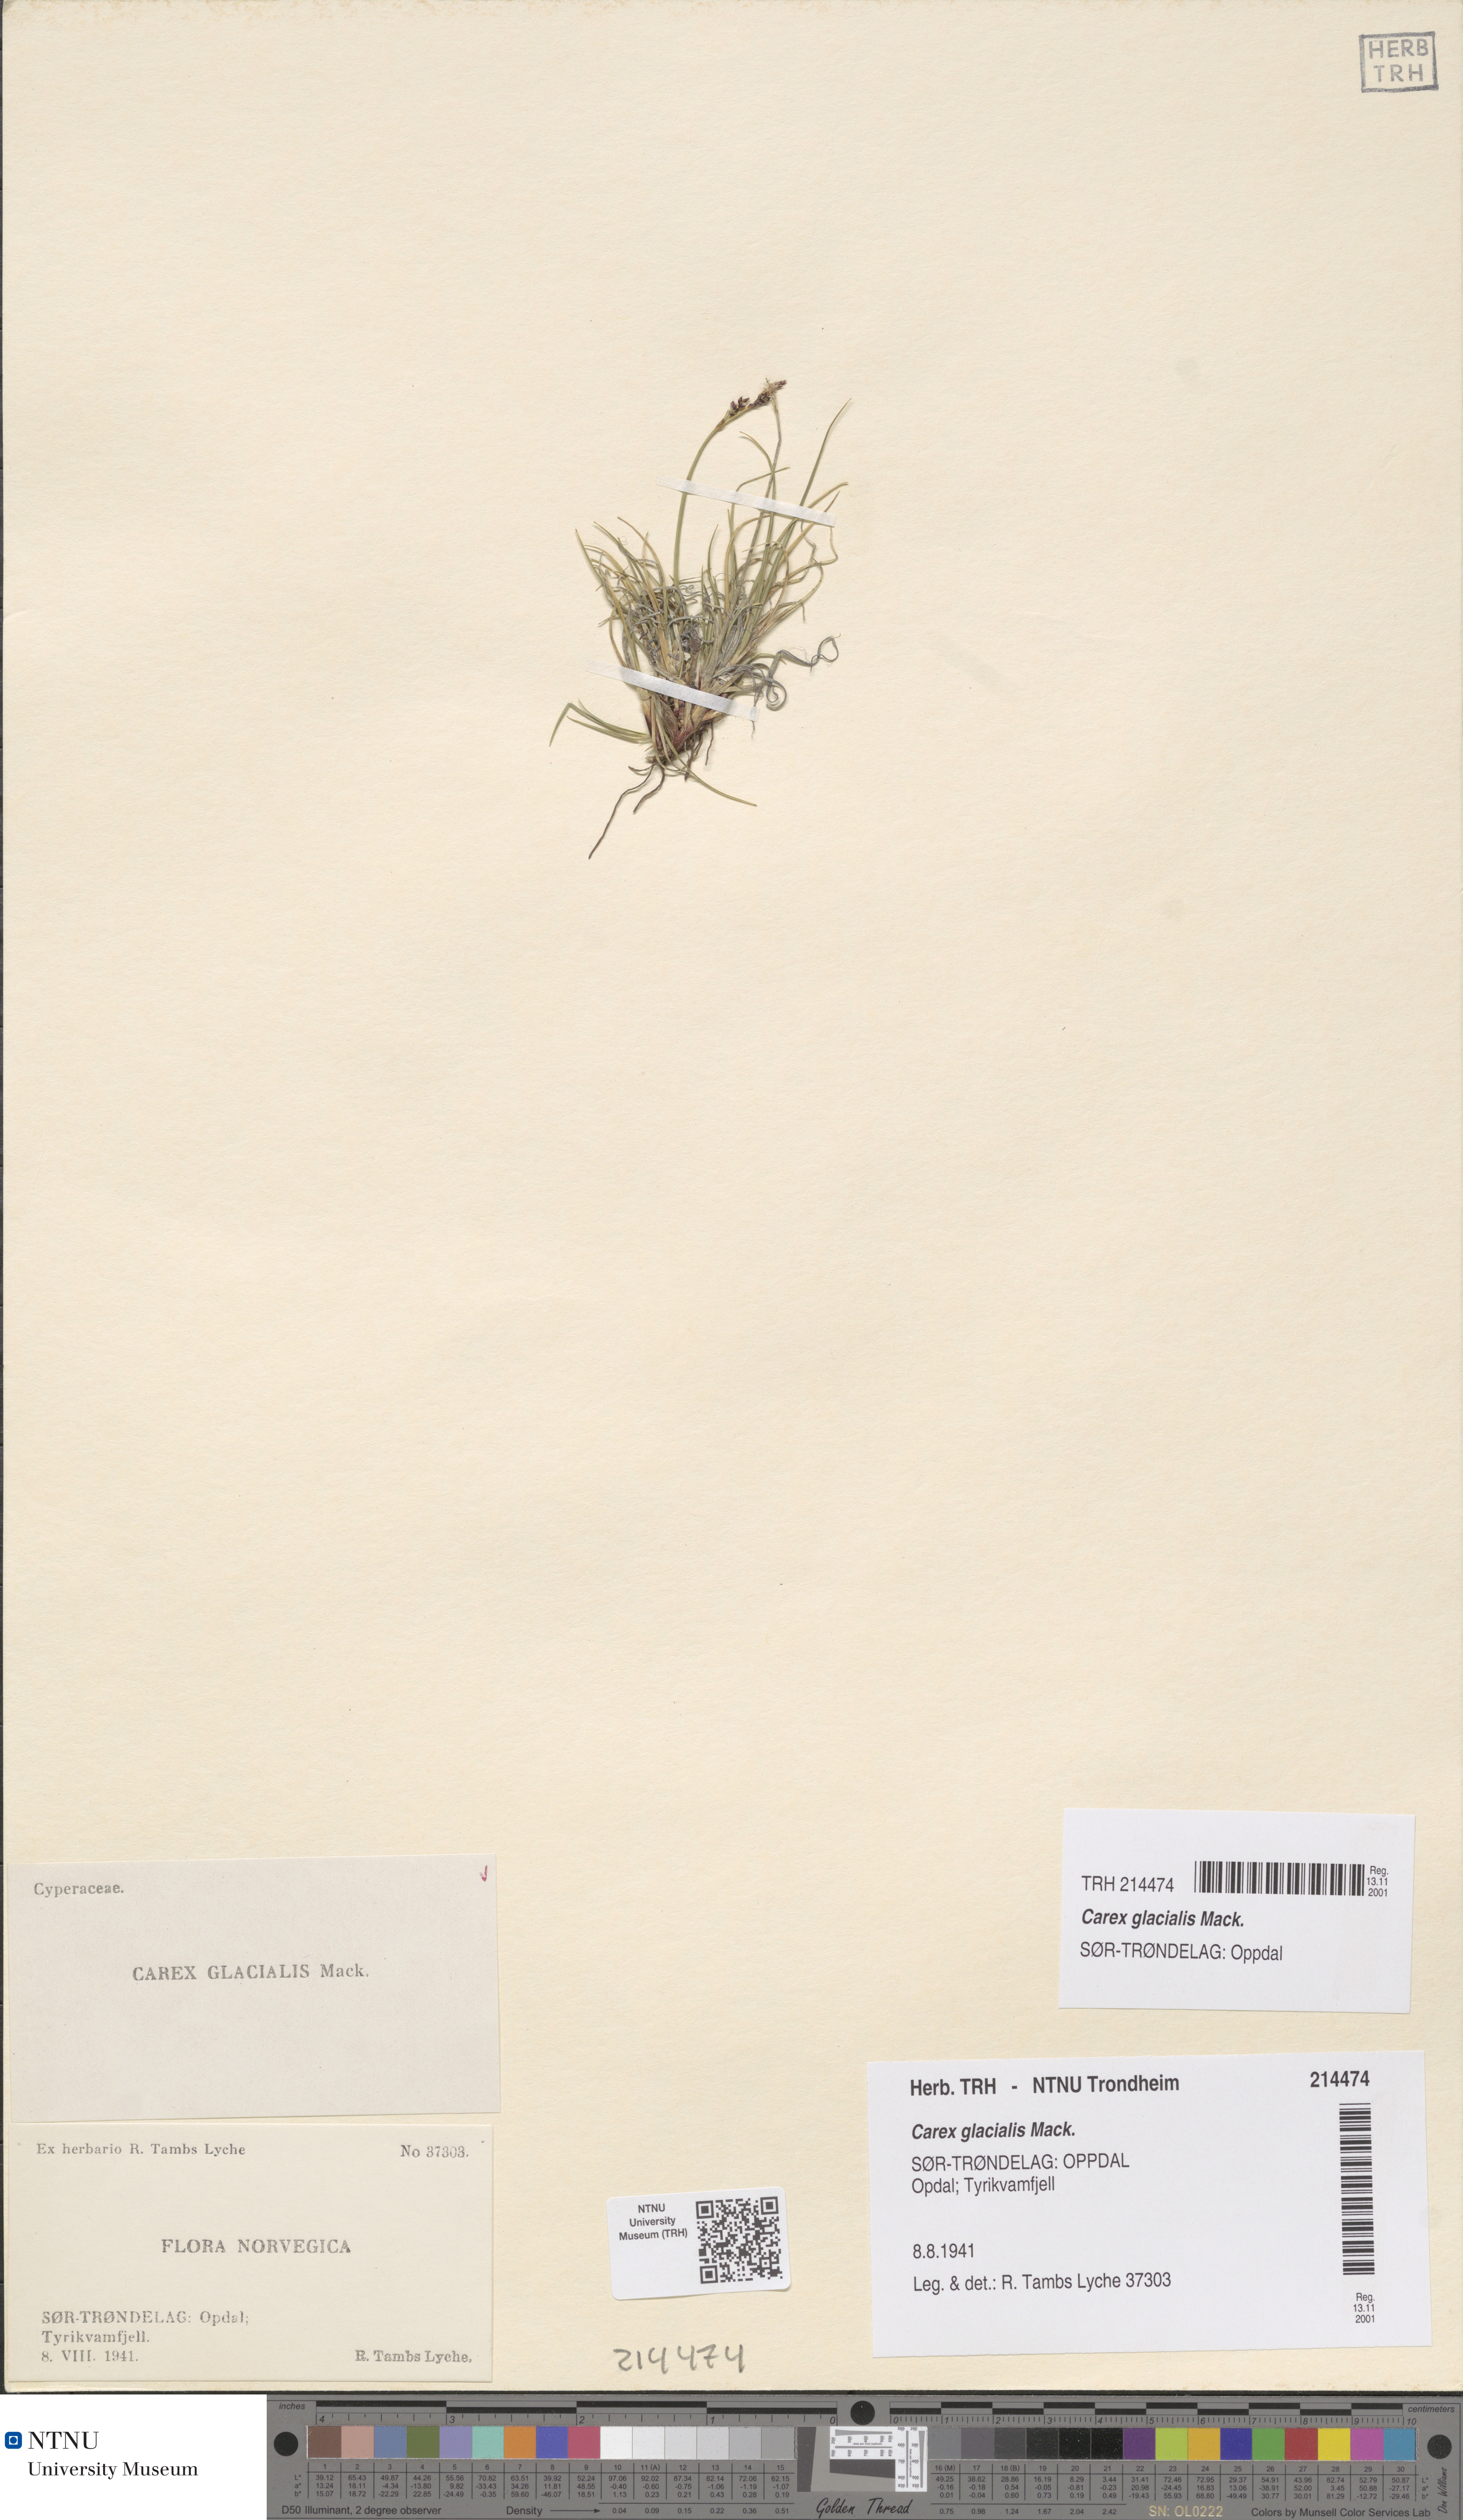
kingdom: Plantae
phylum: Tracheophyta
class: Liliopsida
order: Poales
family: Cyperaceae
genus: Carex
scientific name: Carex glacialis
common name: Newfoundland sedge
